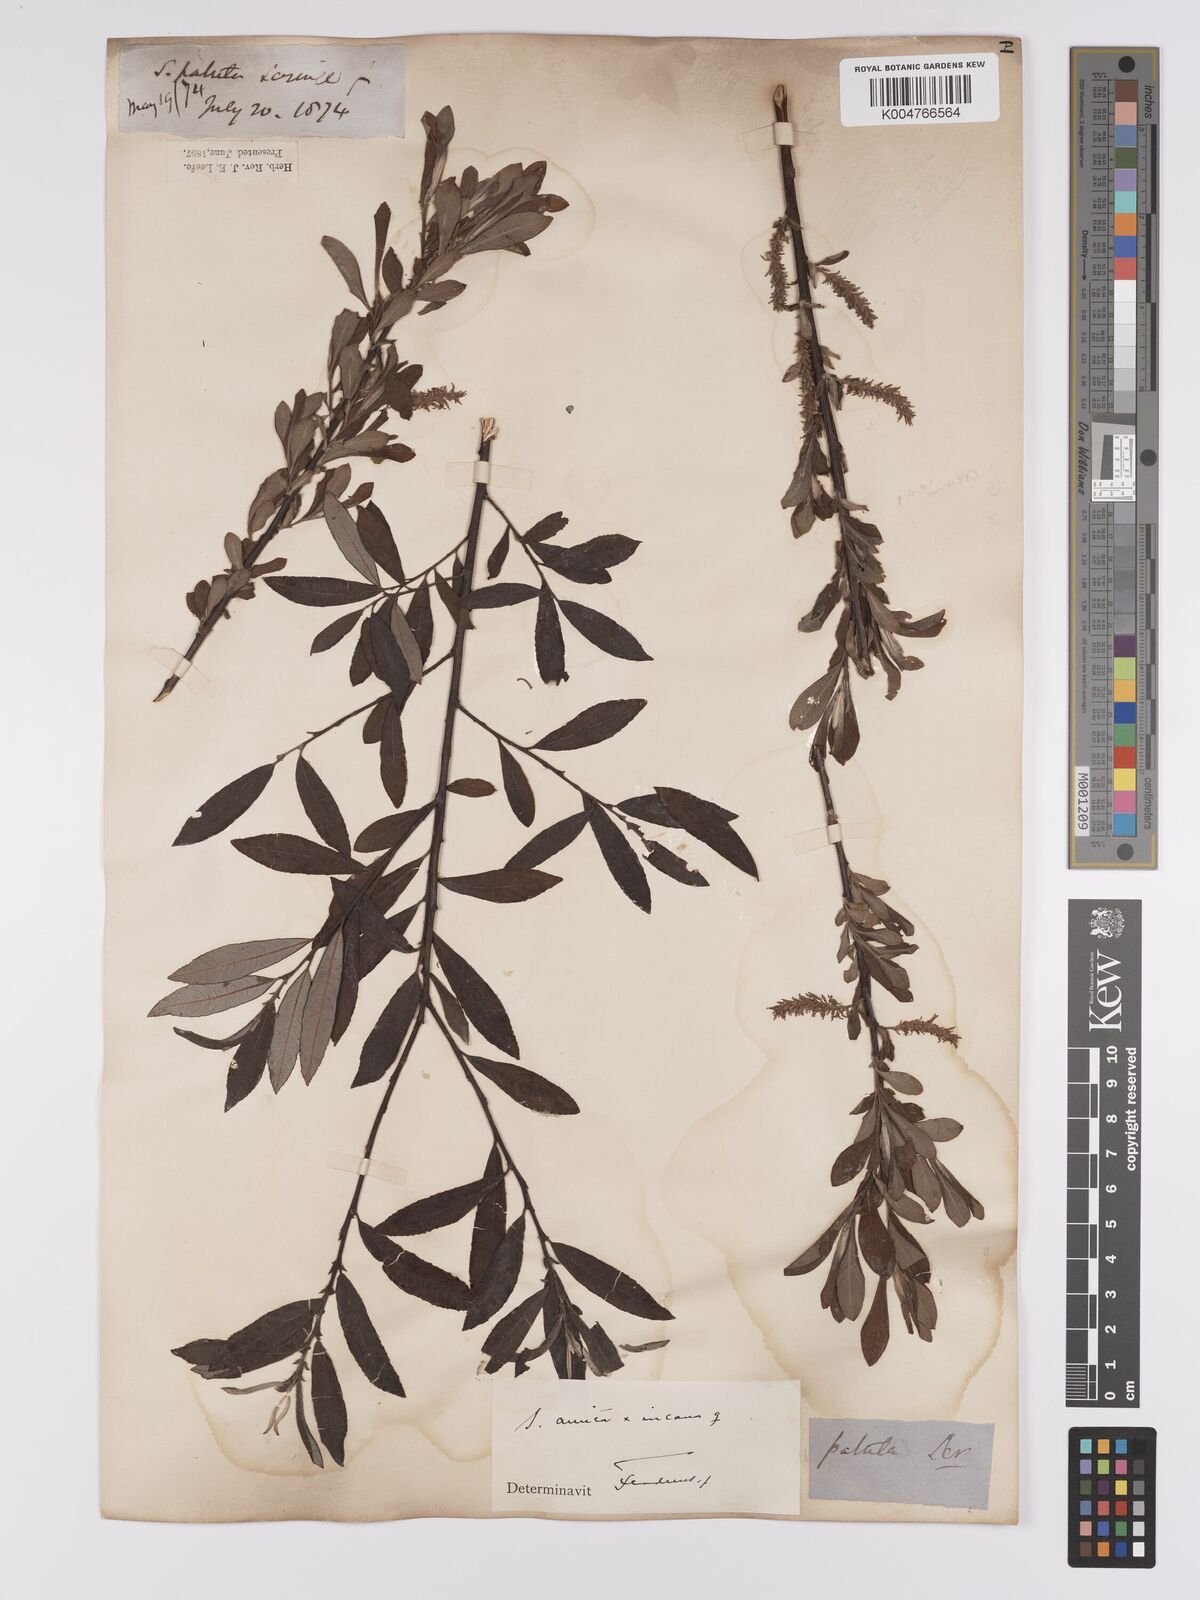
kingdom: Plantae
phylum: Tracheophyta
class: Magnoliopsida
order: Malpighiales
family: Salicaceae
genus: Salix
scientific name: Salix
